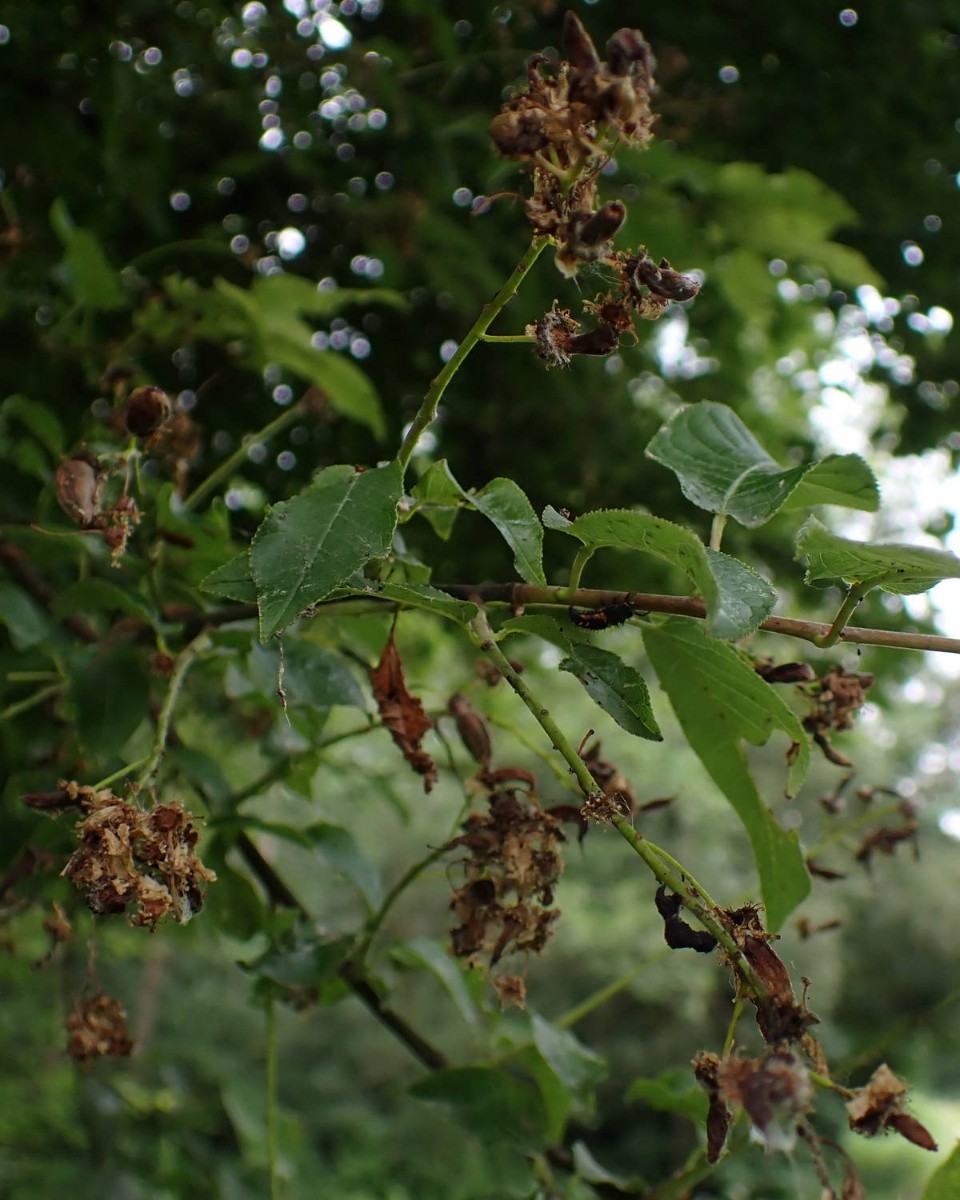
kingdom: Fungi
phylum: Ascomycota
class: Taphrinomycetes
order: Taphrinales
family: Taphrinaceae
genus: Taphrina
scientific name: Taphrina padi
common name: Bird cherry pocket
